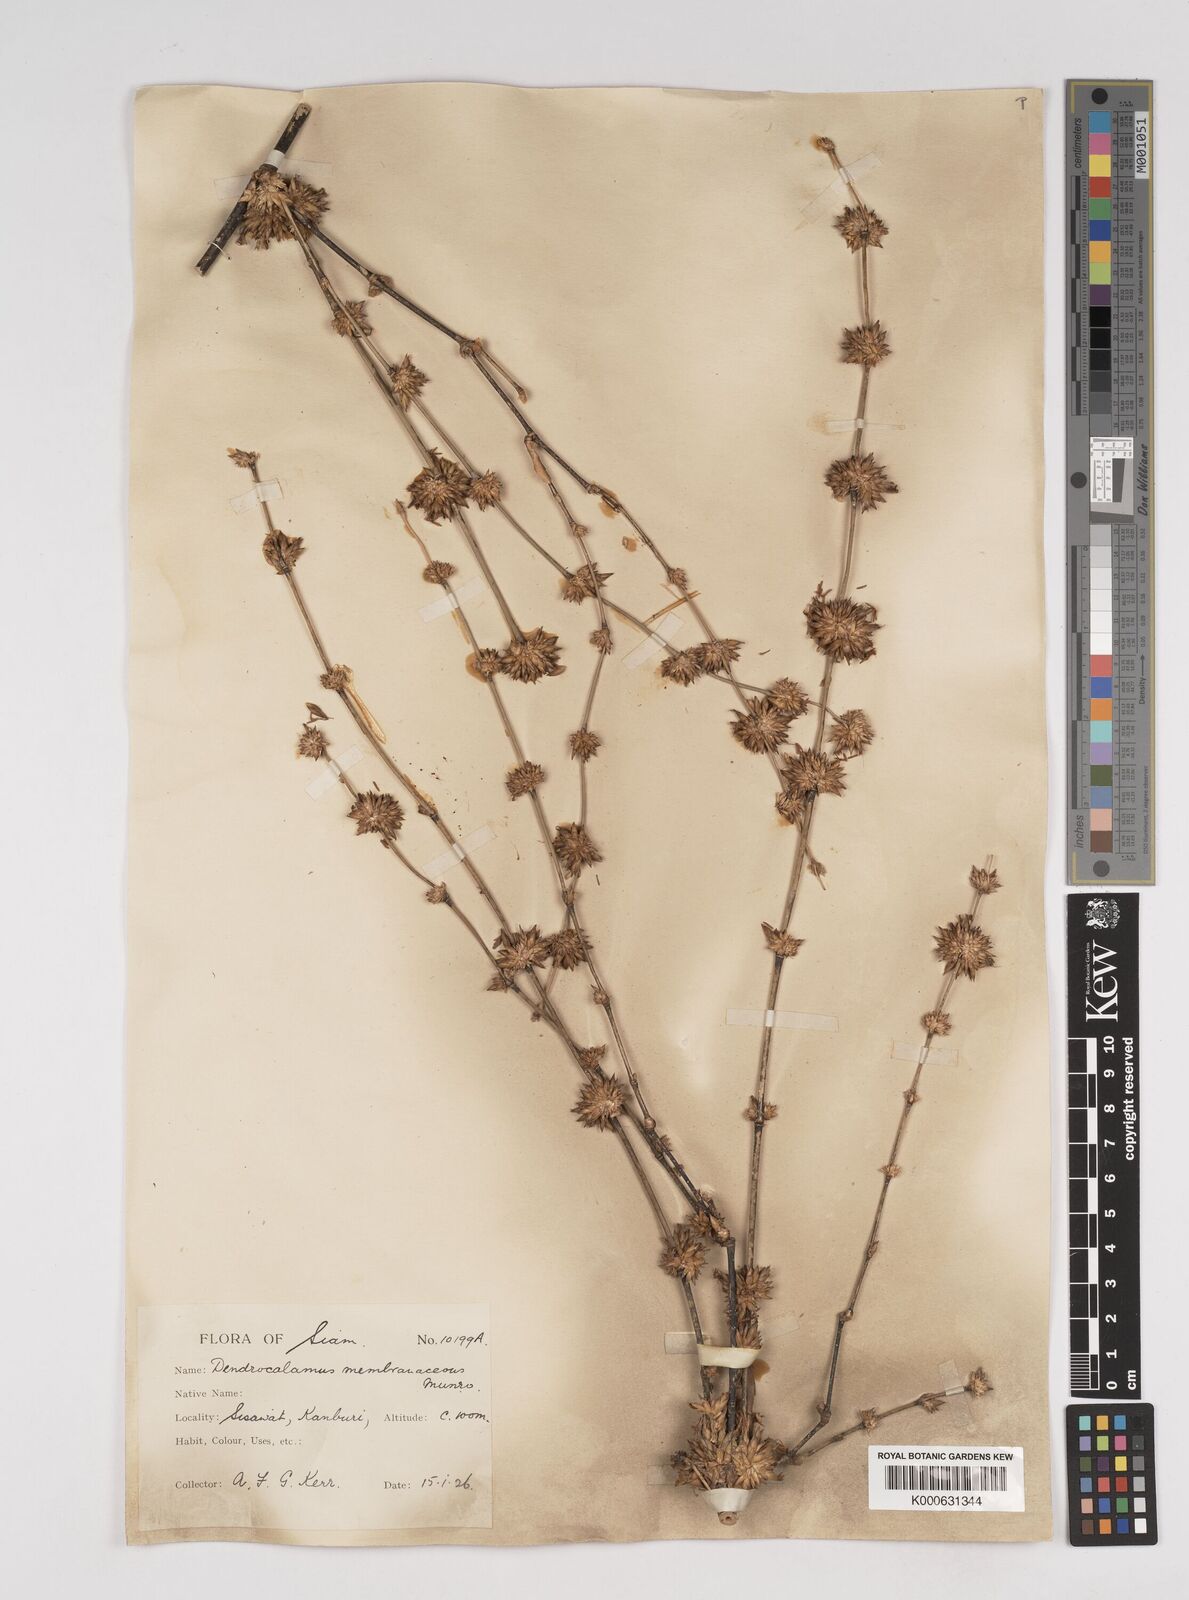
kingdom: Plantae
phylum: Tracheophyta
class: Liliopsida
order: Poales
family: Poaceae
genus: Dendrocalamus
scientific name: Dendrocalamus membranaceus
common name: White bamboo
